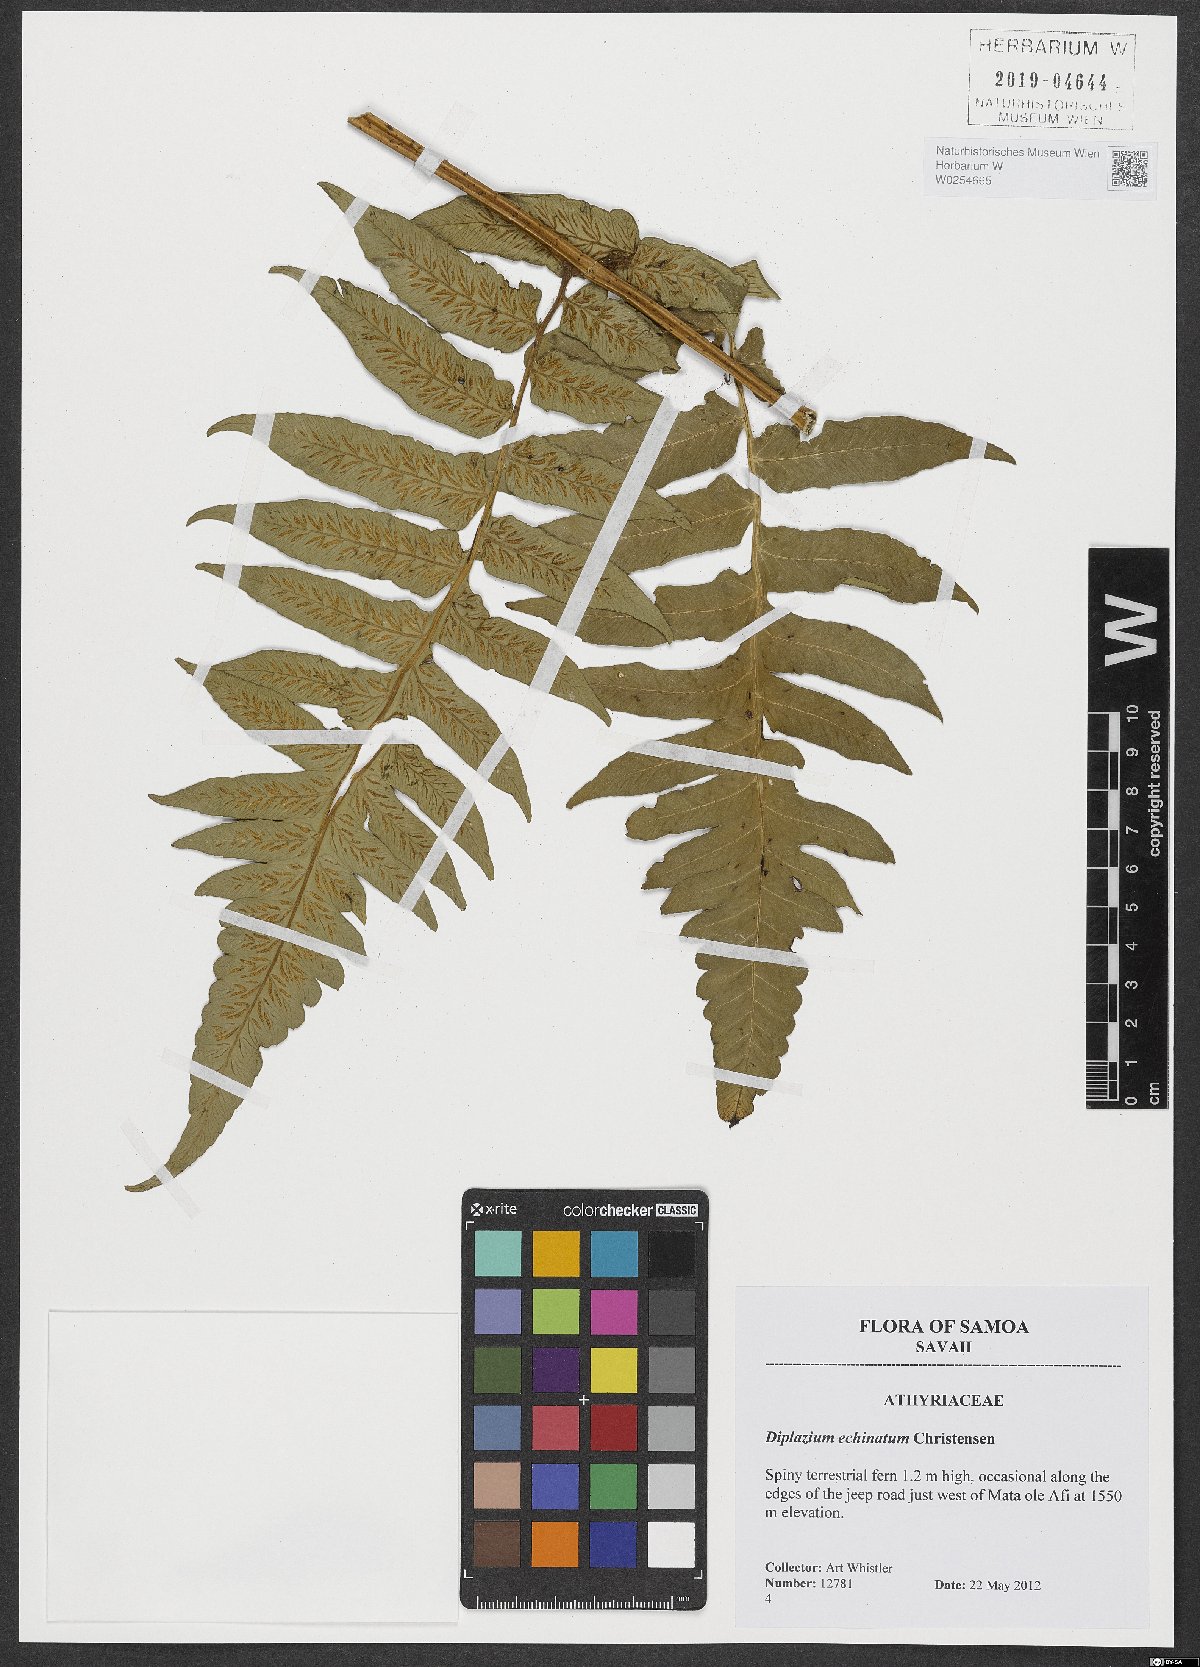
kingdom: Plantae
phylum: Tracheophyta
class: Polypodiopsida
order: Polypodiales
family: Athyriaceae
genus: Diplazium
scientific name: Diplazium echinatum
